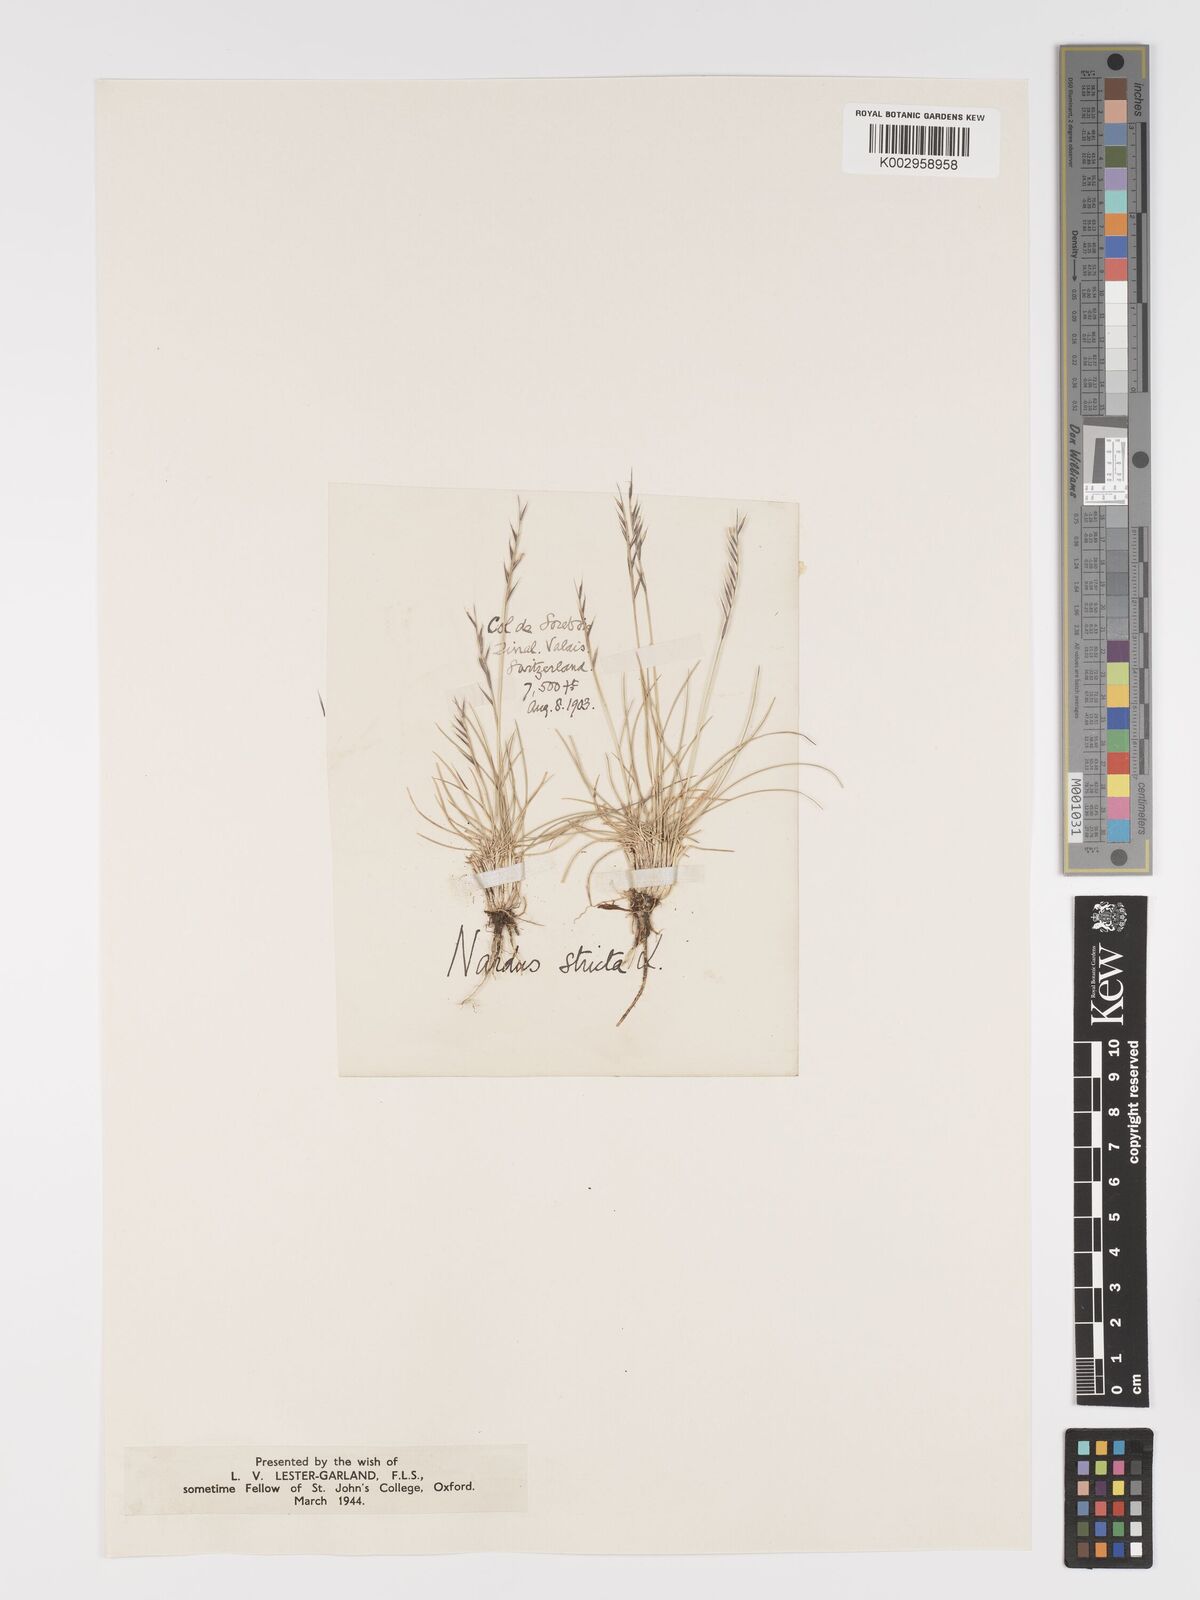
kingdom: Plantae
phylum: Tracheophyta
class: Liliopsida
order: Poales
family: Poaceae
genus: Nardus
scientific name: Nardus stricta
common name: Mat-grass
